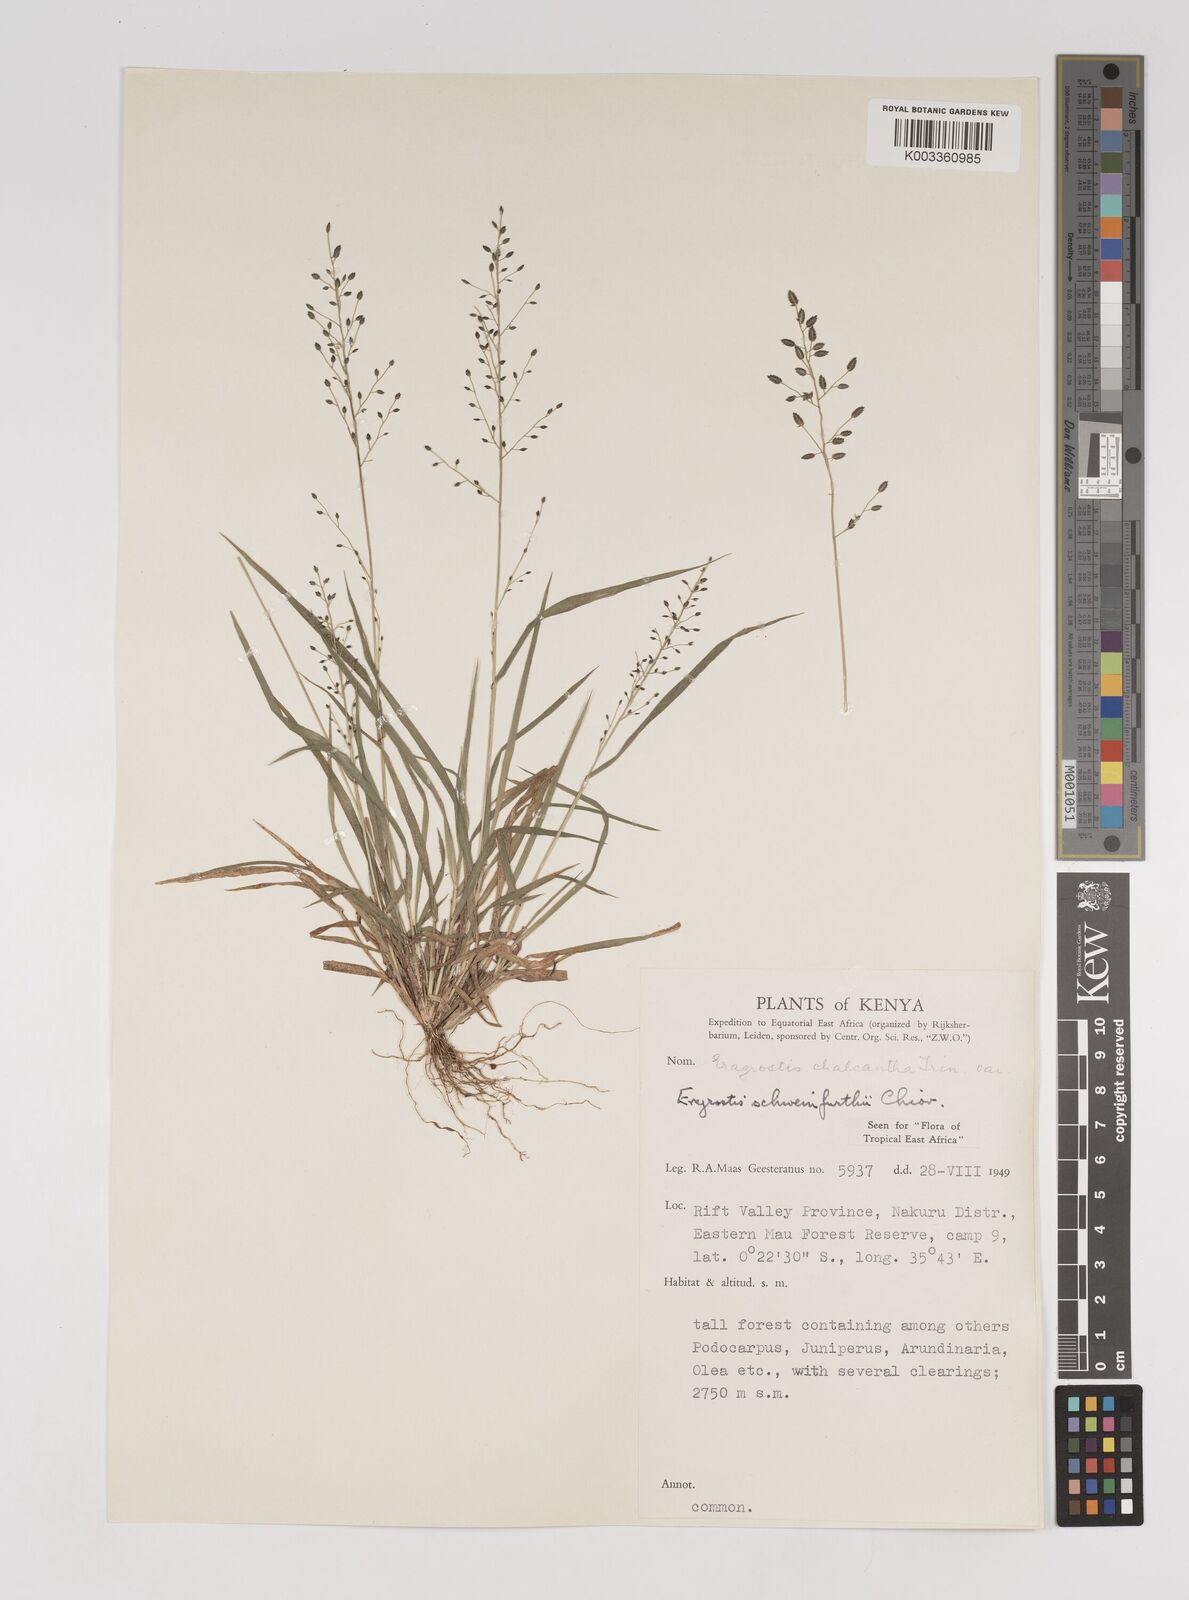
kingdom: Plantae
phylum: Tracheophyta
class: Liliopsida
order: Poales
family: Poaceae
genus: Eragrostis
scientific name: Eragrostis schweinfurthii
